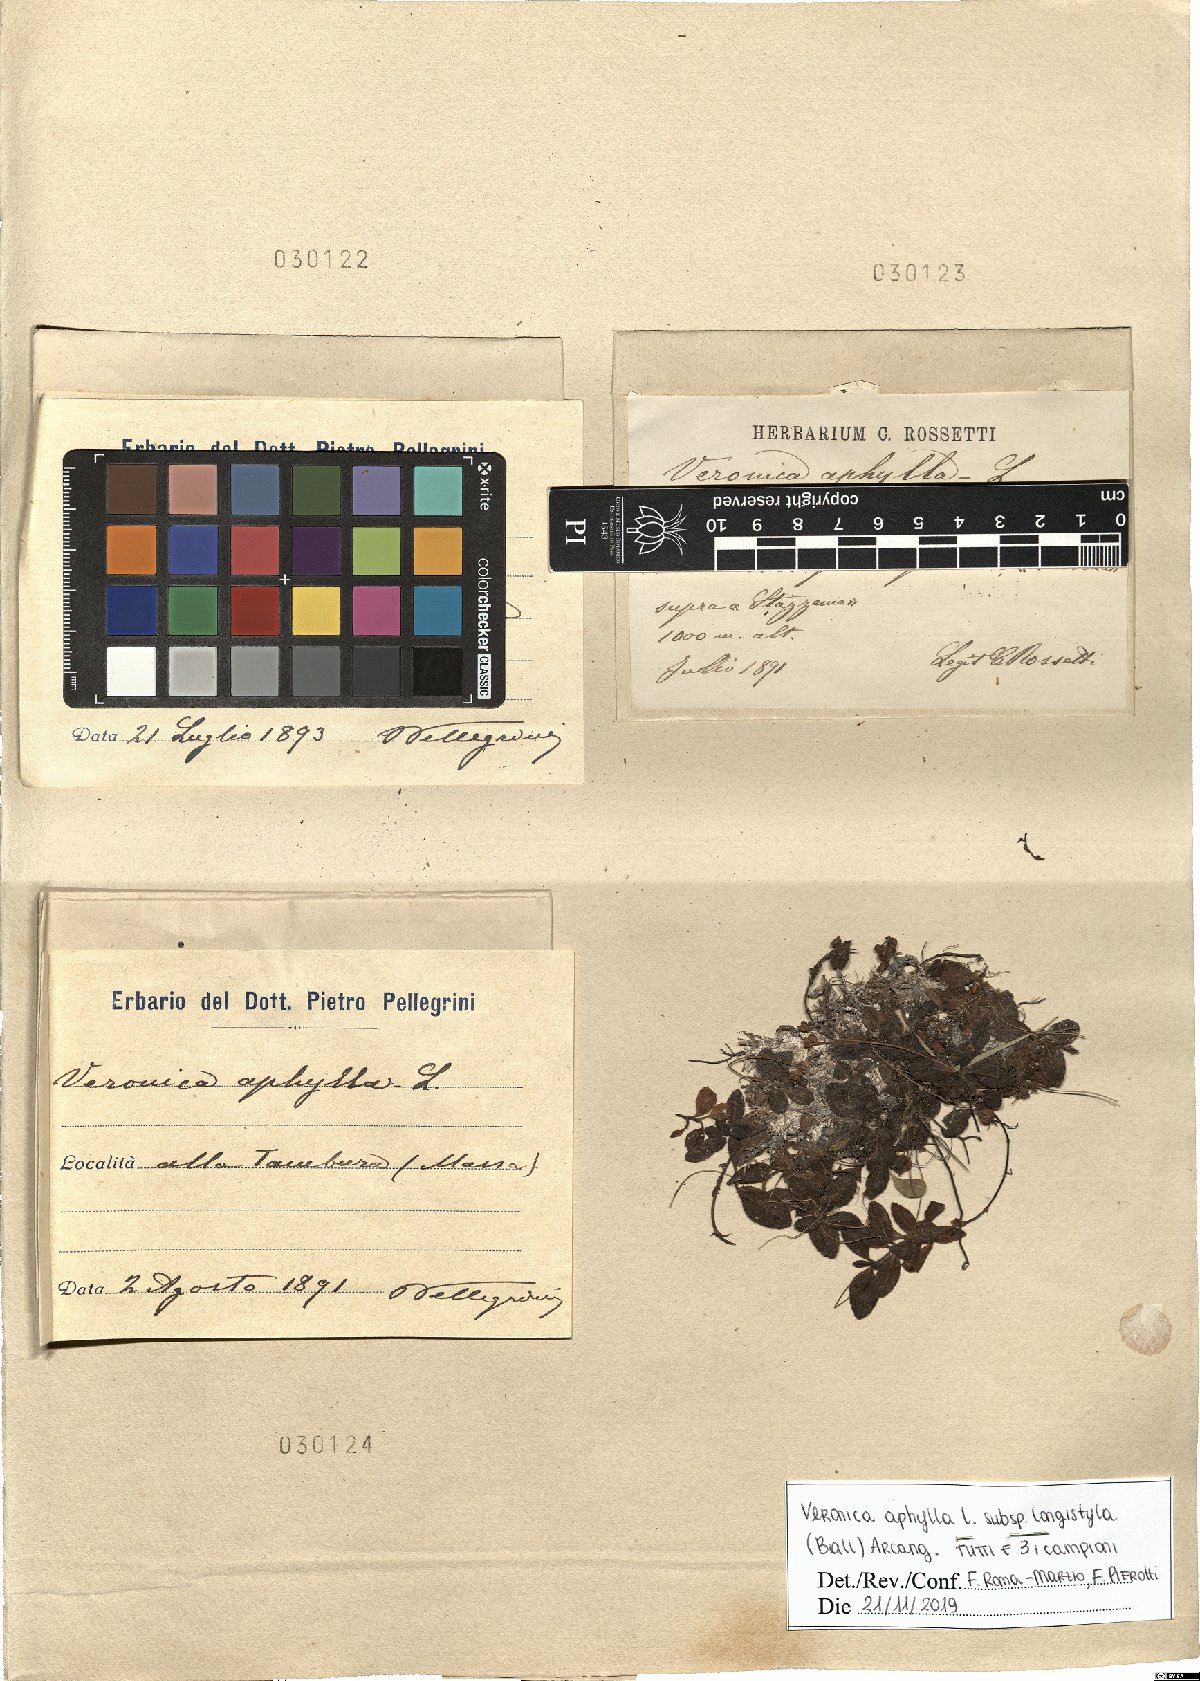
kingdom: Plantae
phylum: Tracheophyta
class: Magnoliopsida
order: Lamiales
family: Plantaginaceae
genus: Veronica
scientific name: Veronica aphylla
